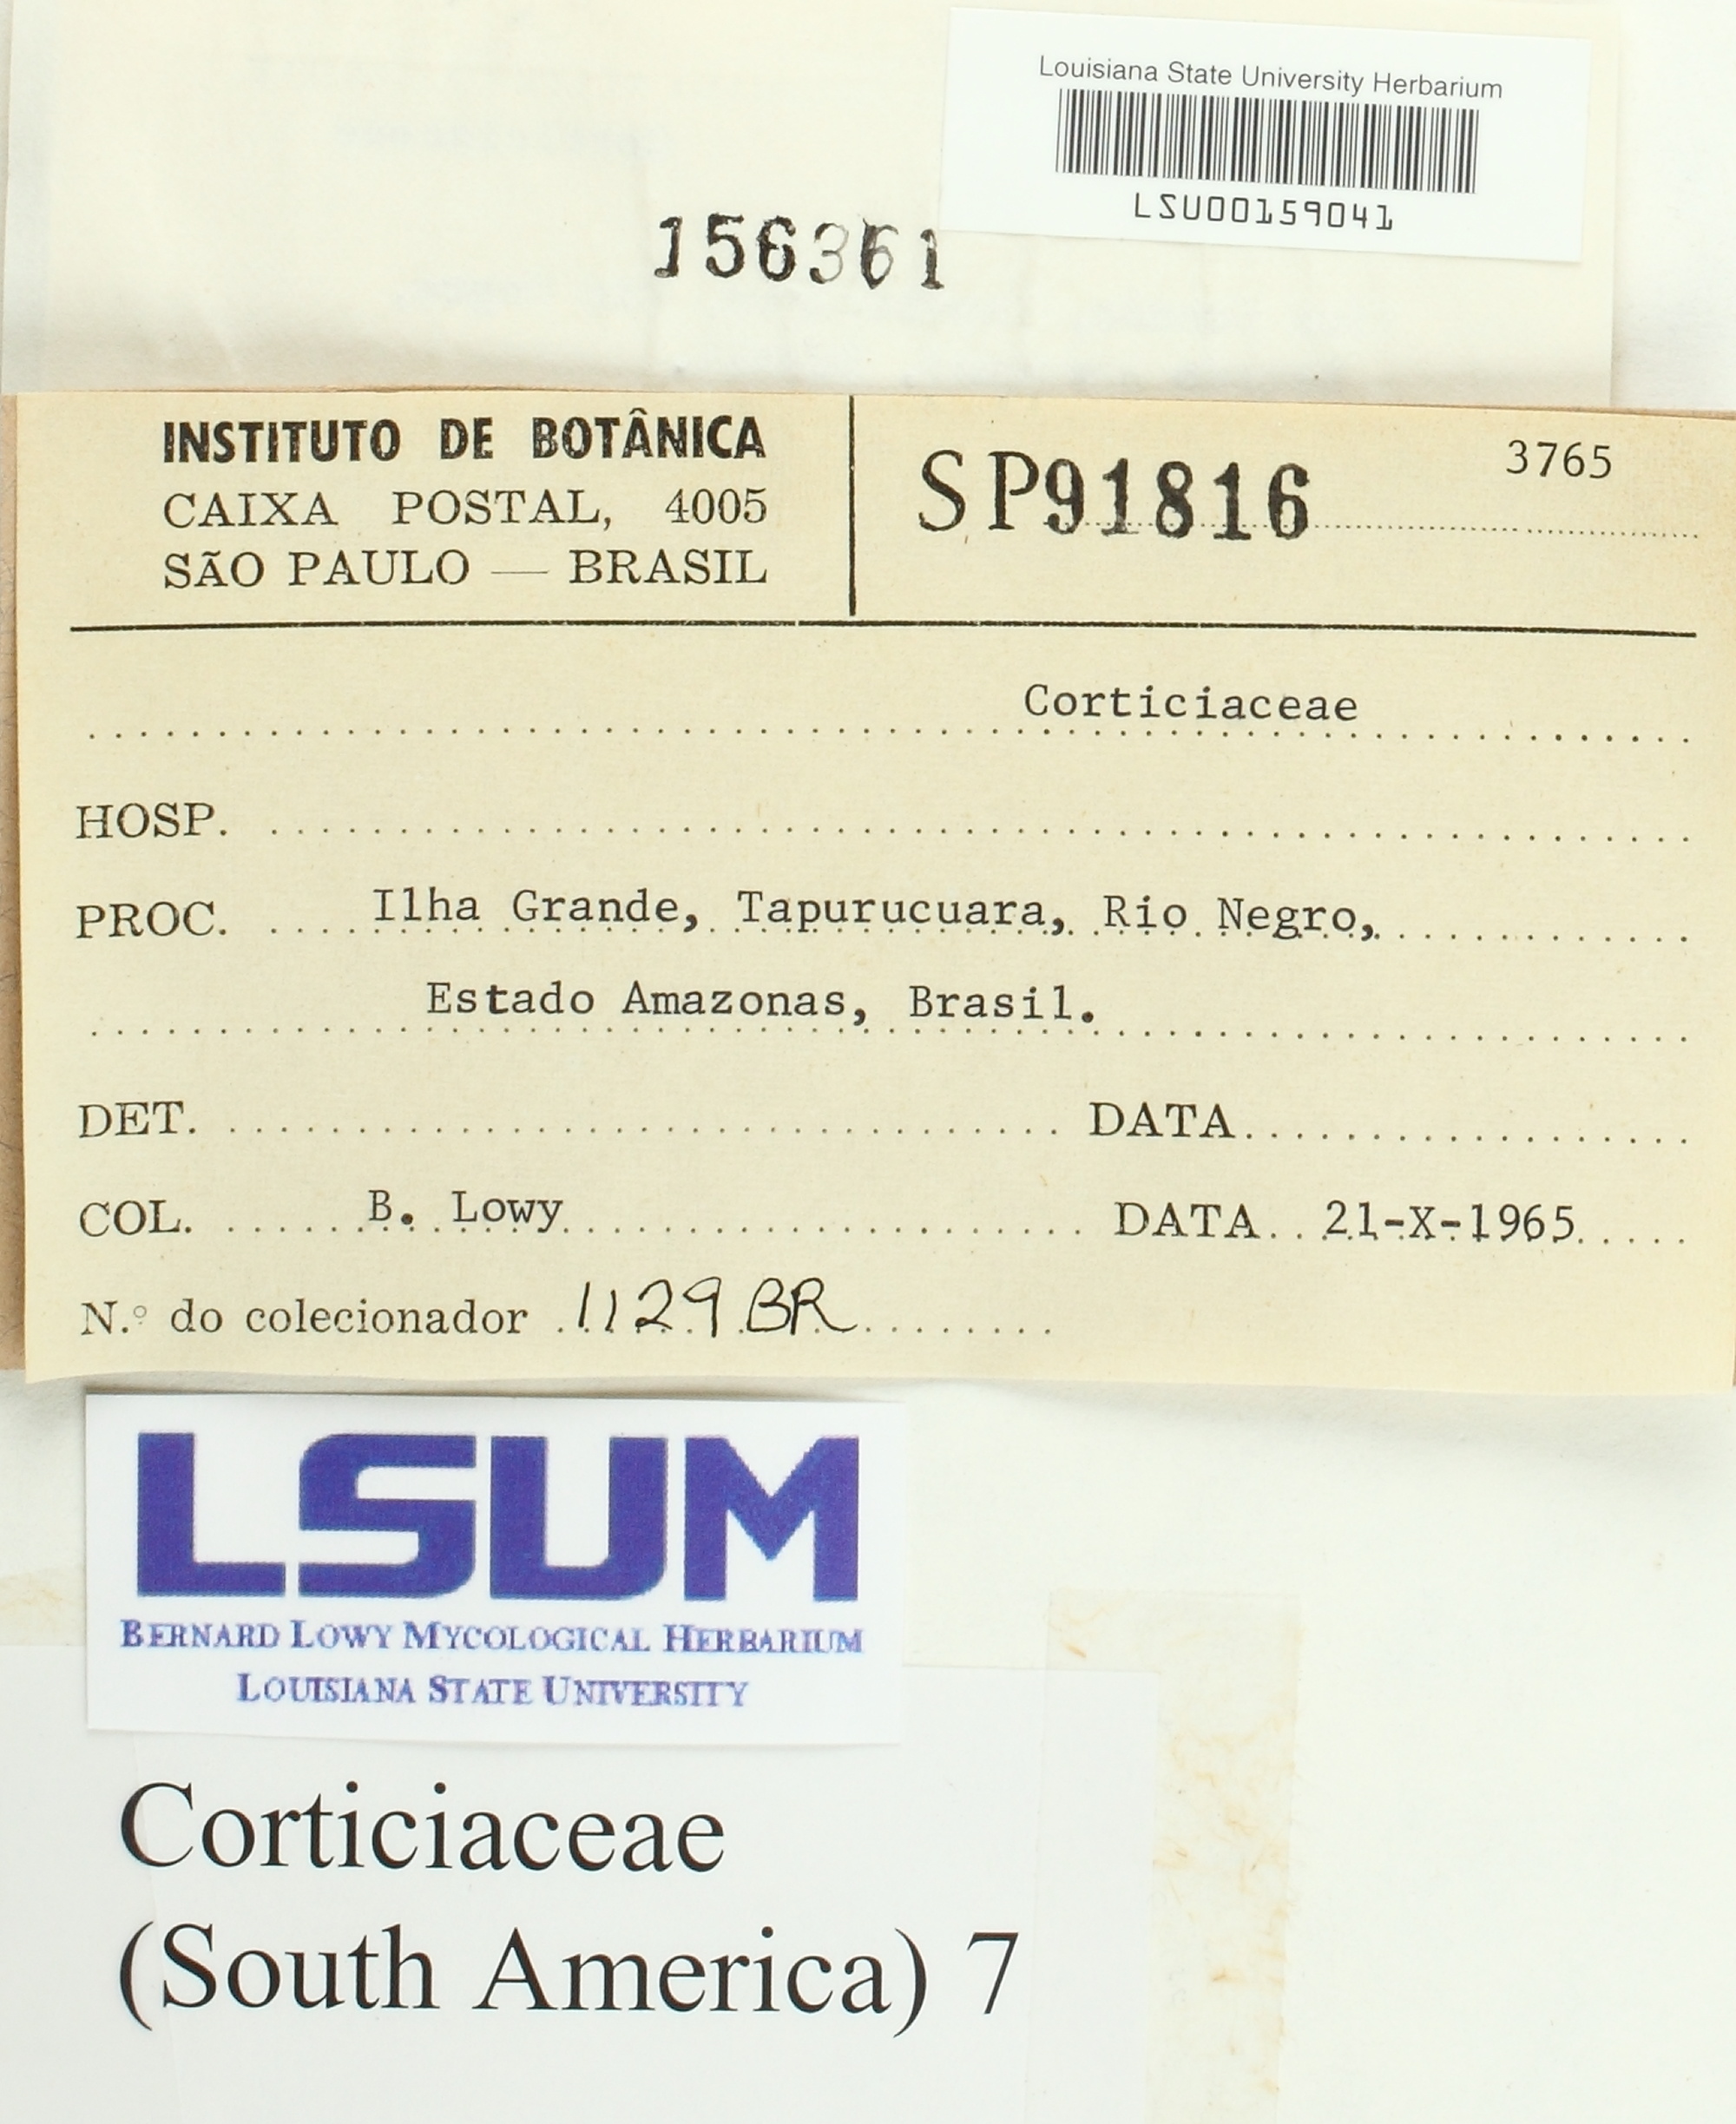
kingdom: Fungi
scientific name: Fungi
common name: Fungi
